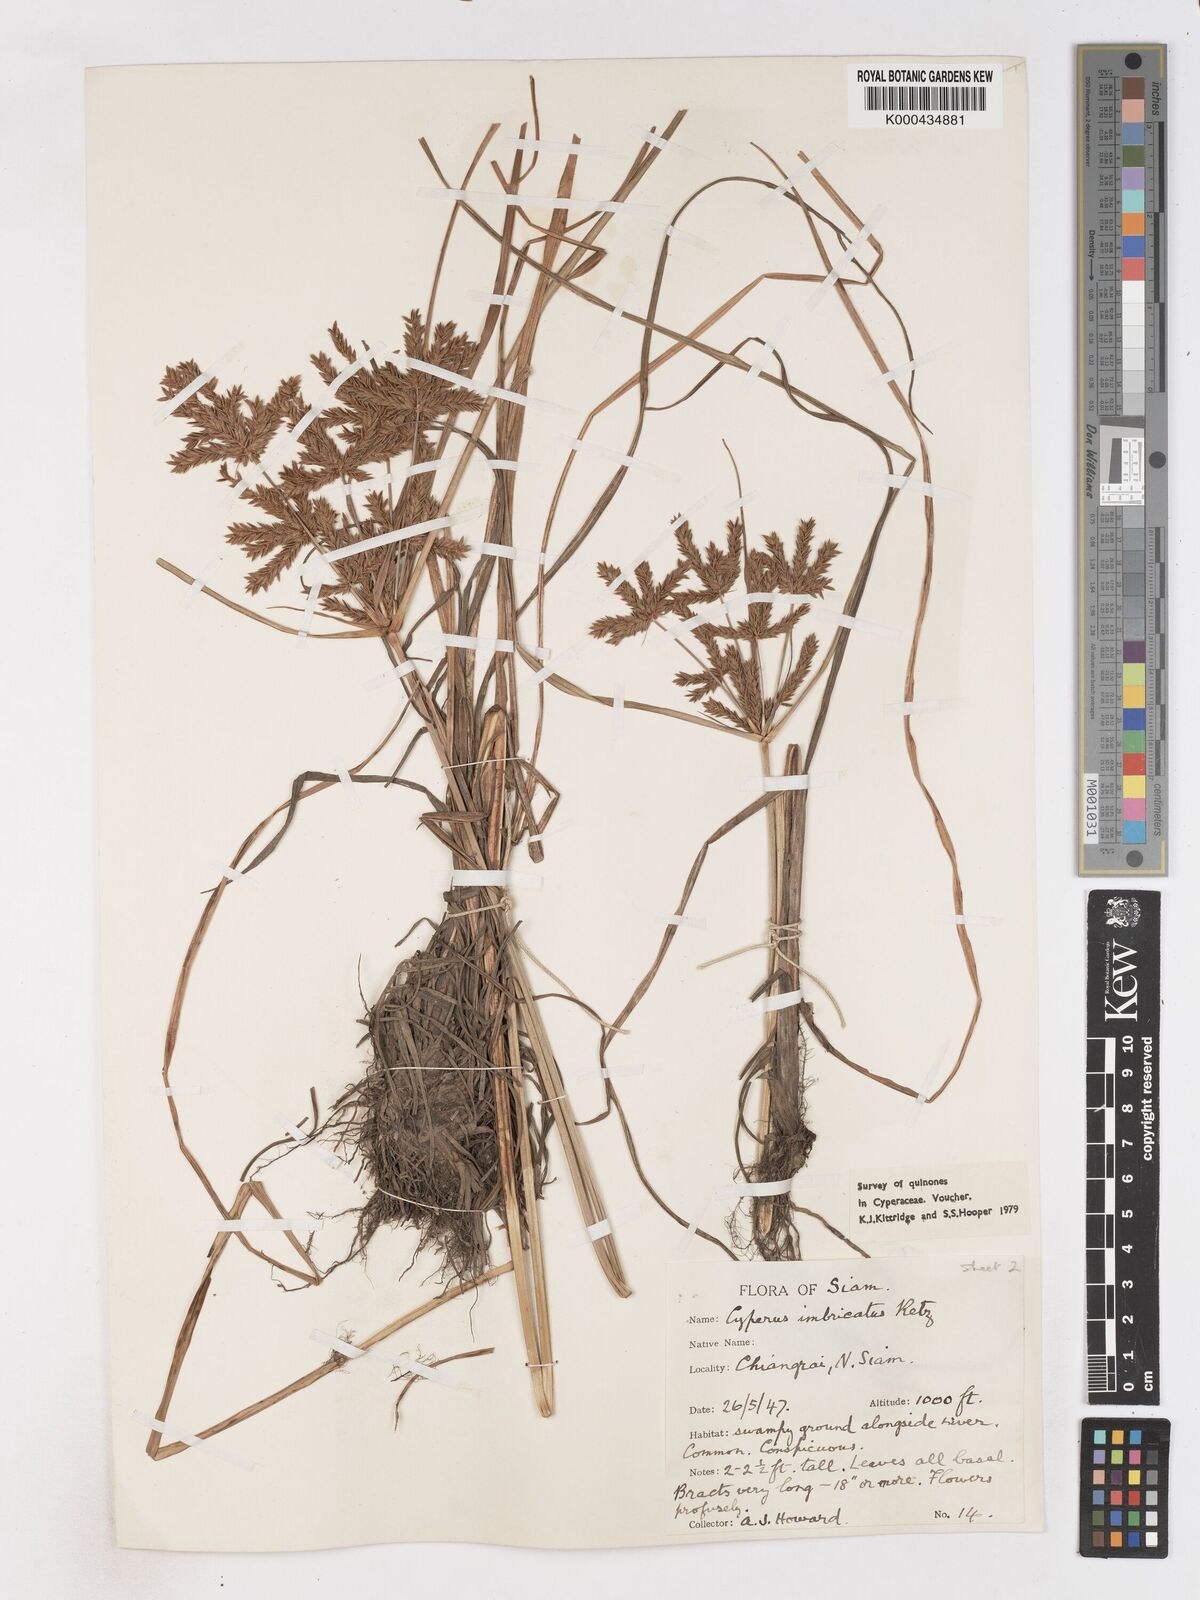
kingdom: Plantae
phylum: Tracheophyta
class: Liliopsida
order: Poales
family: Cyperaceae
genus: Cyperus
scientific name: Cyperus imbricatus
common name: Shingle flatsedge
